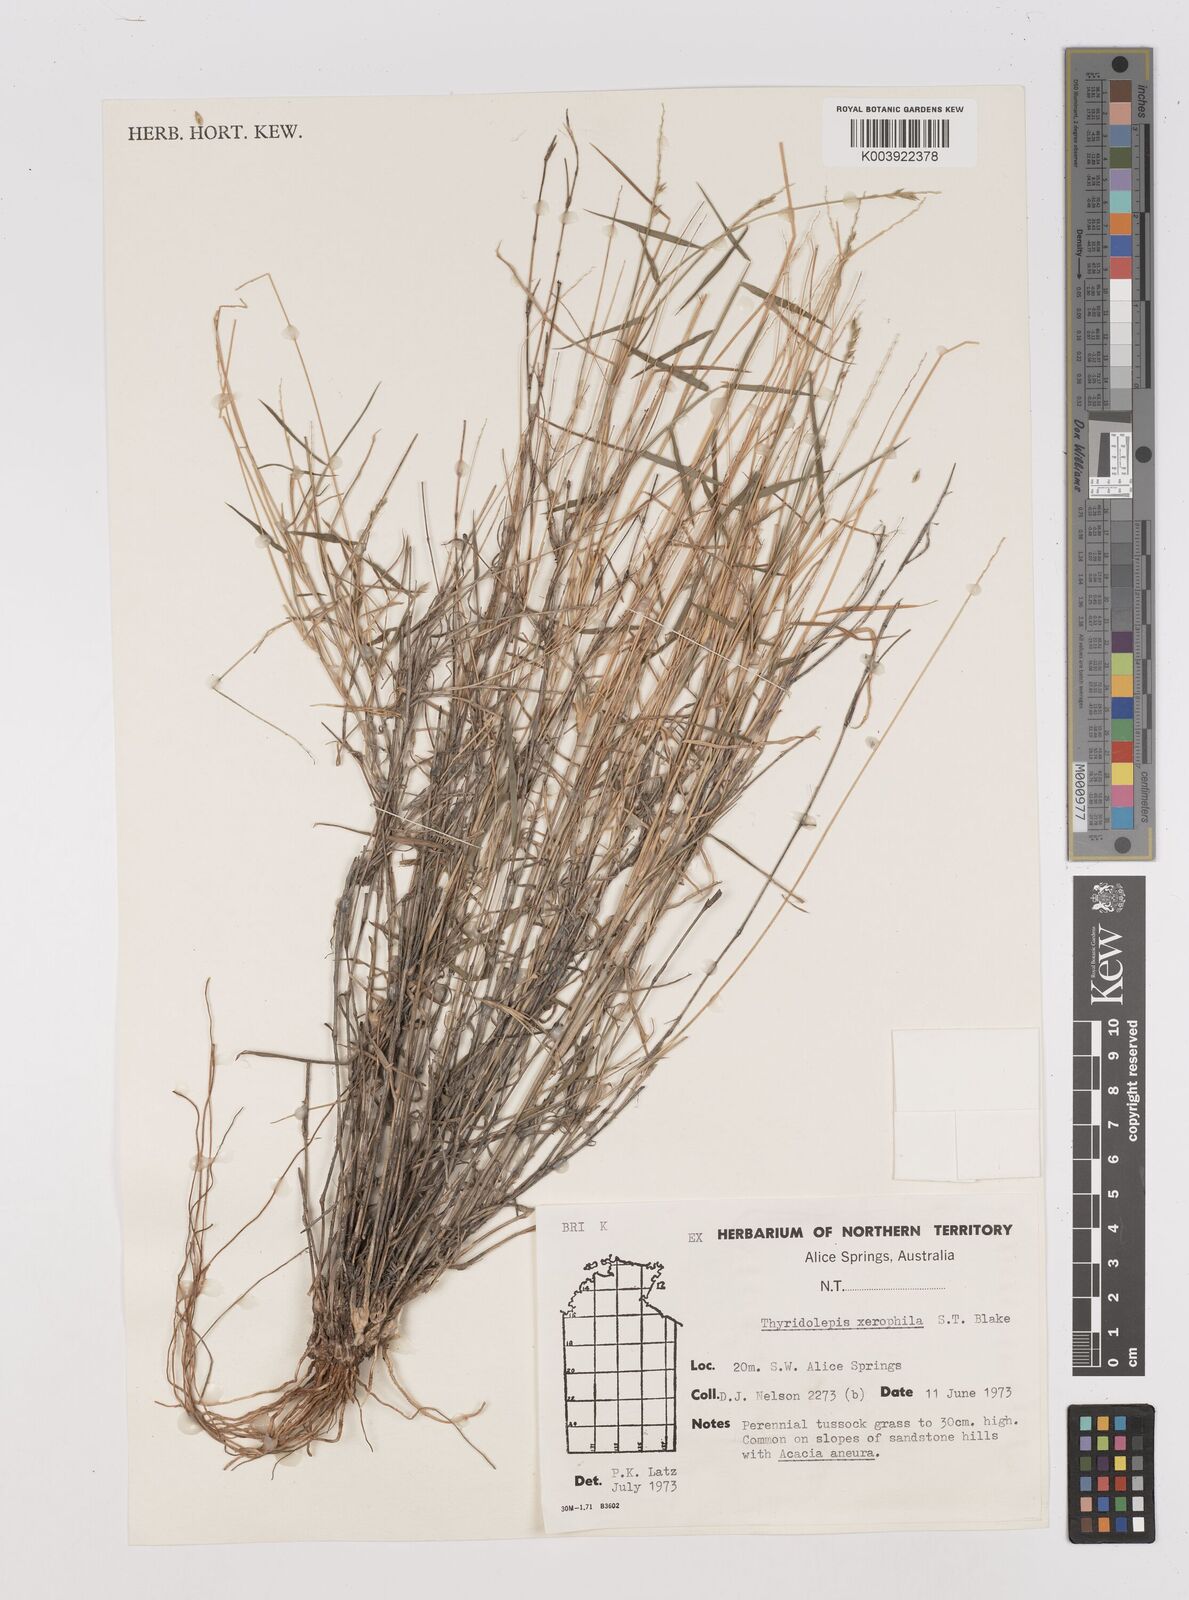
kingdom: Plantae
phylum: Tracheophyta
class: Liliopsida
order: Poales
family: Poaceae
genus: Thyridolepis
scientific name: Thyridolepis xerophila
